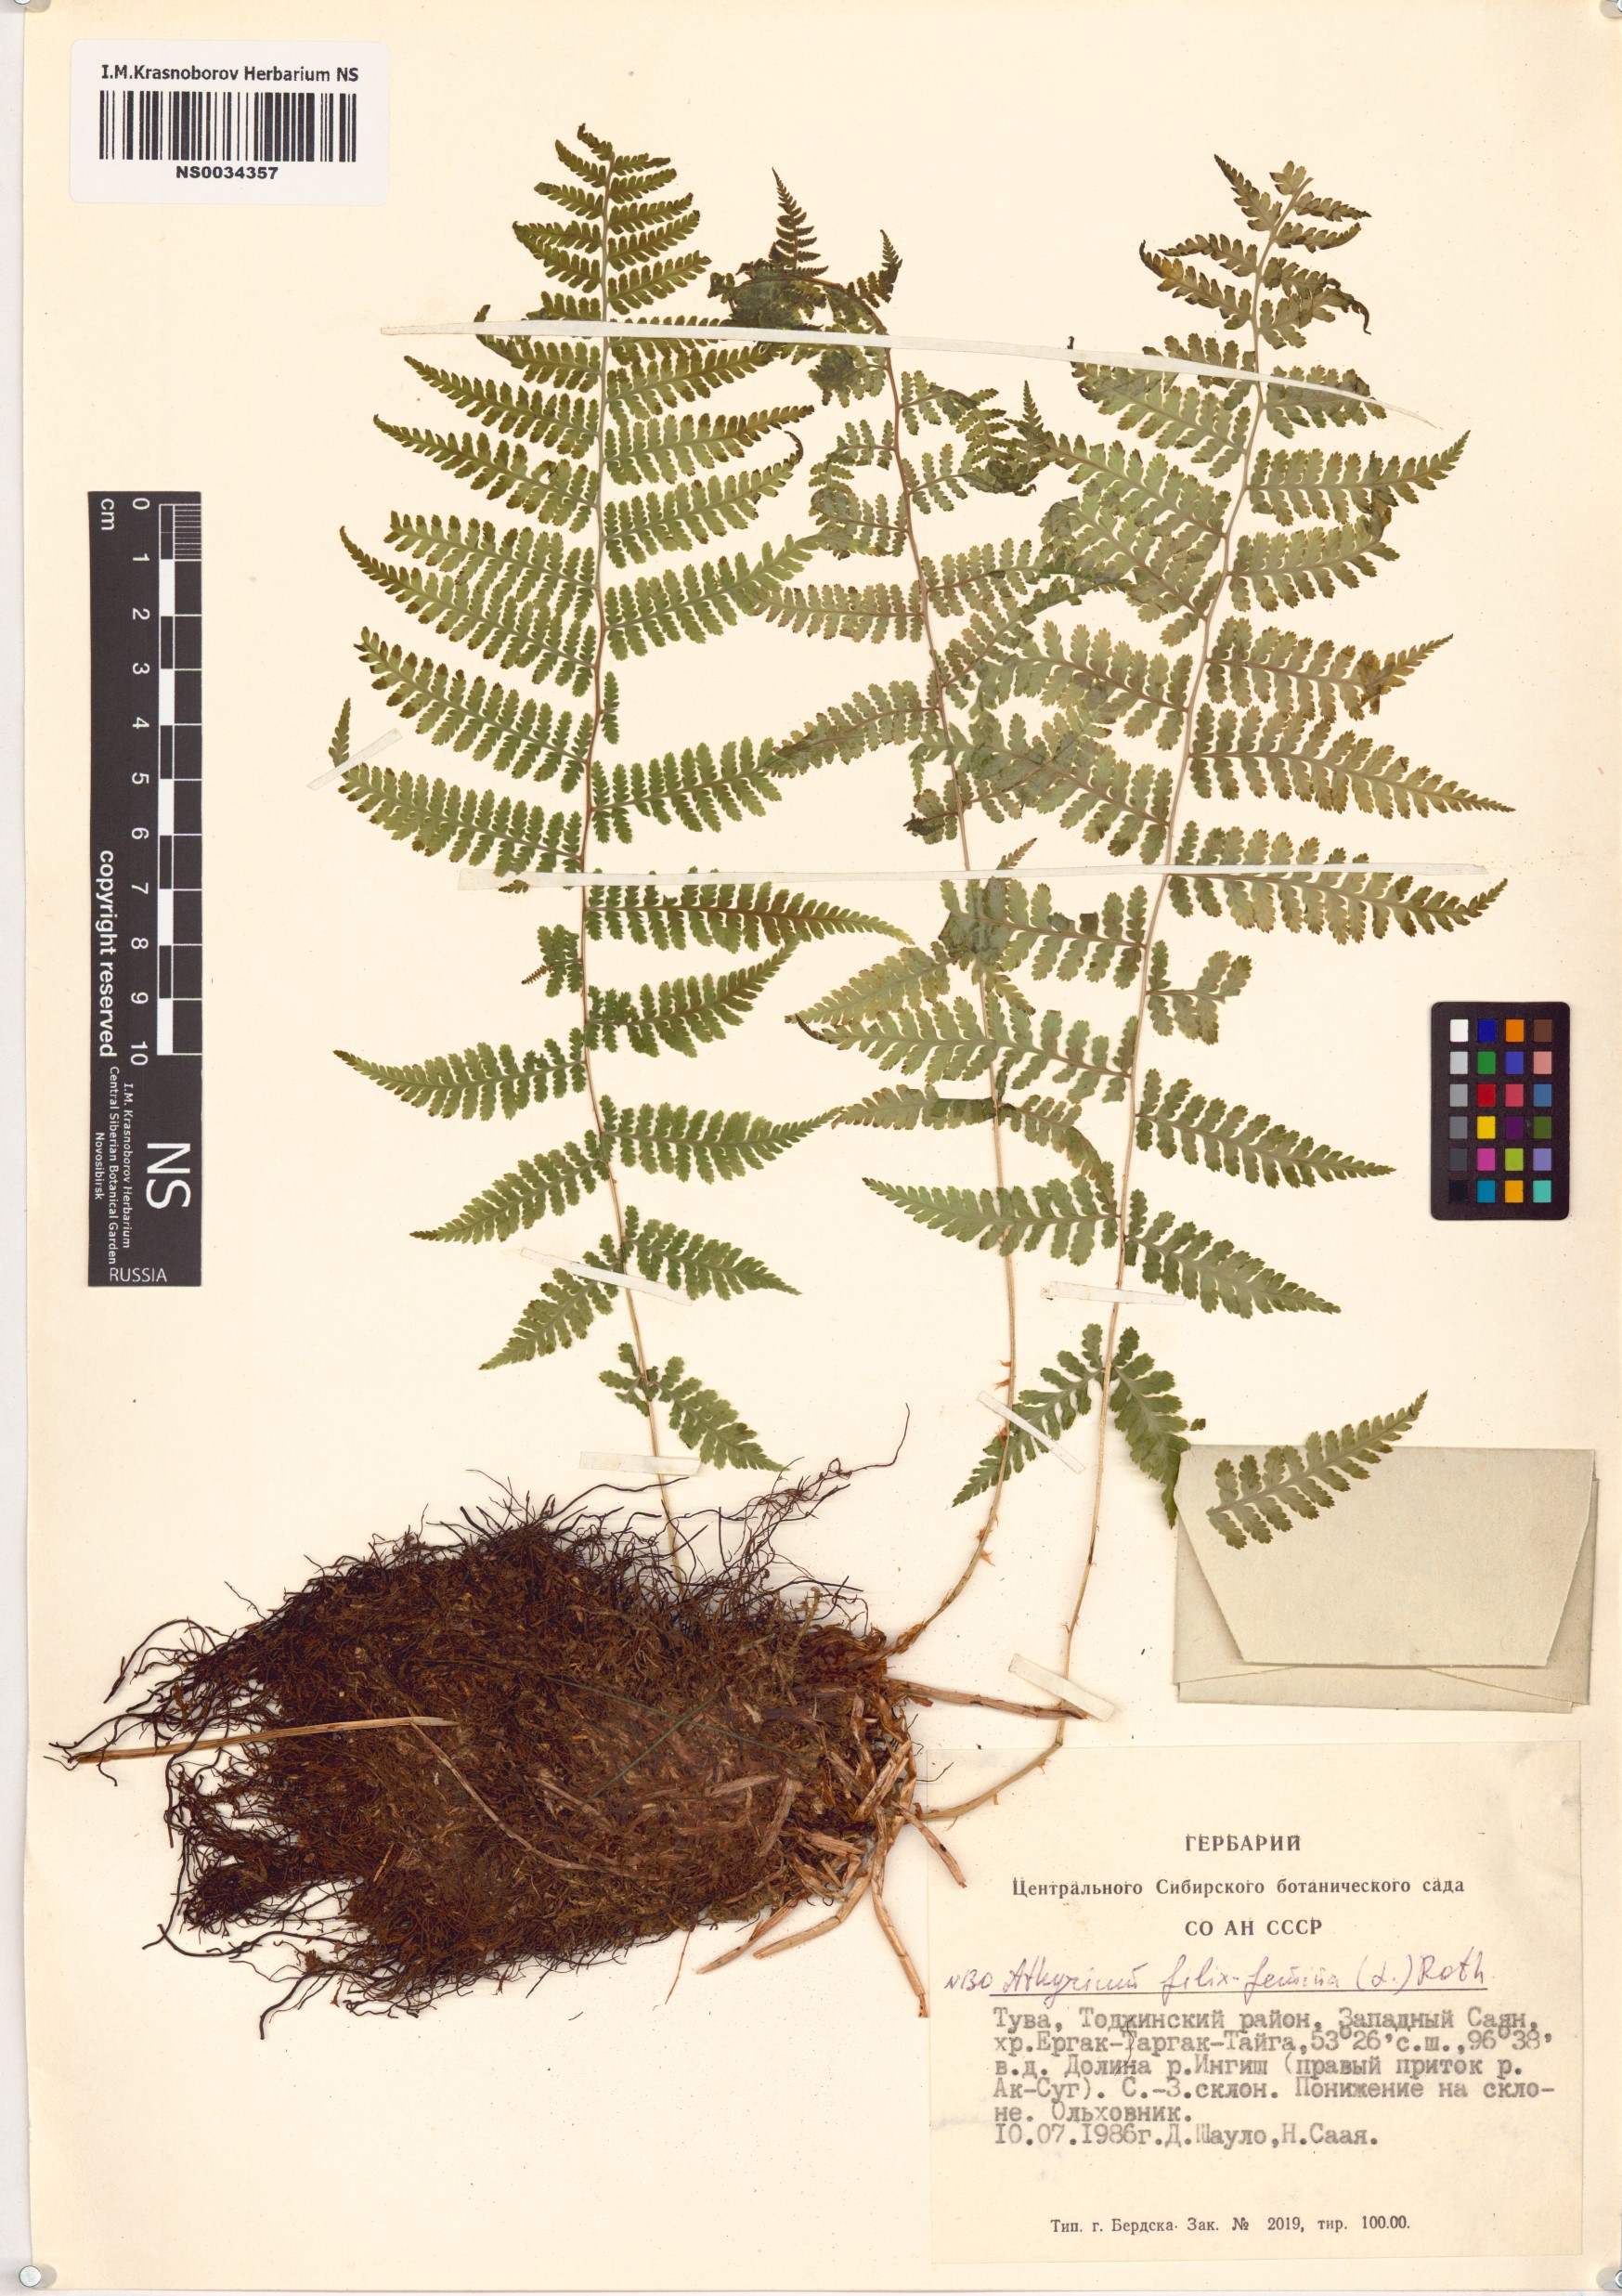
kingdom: Plantae
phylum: Tracheophyta
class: Polypodiopsida
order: Polypodiales
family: Athyriaceae
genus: Athyrium
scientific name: Athyrium filix-femina
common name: Lady fern
